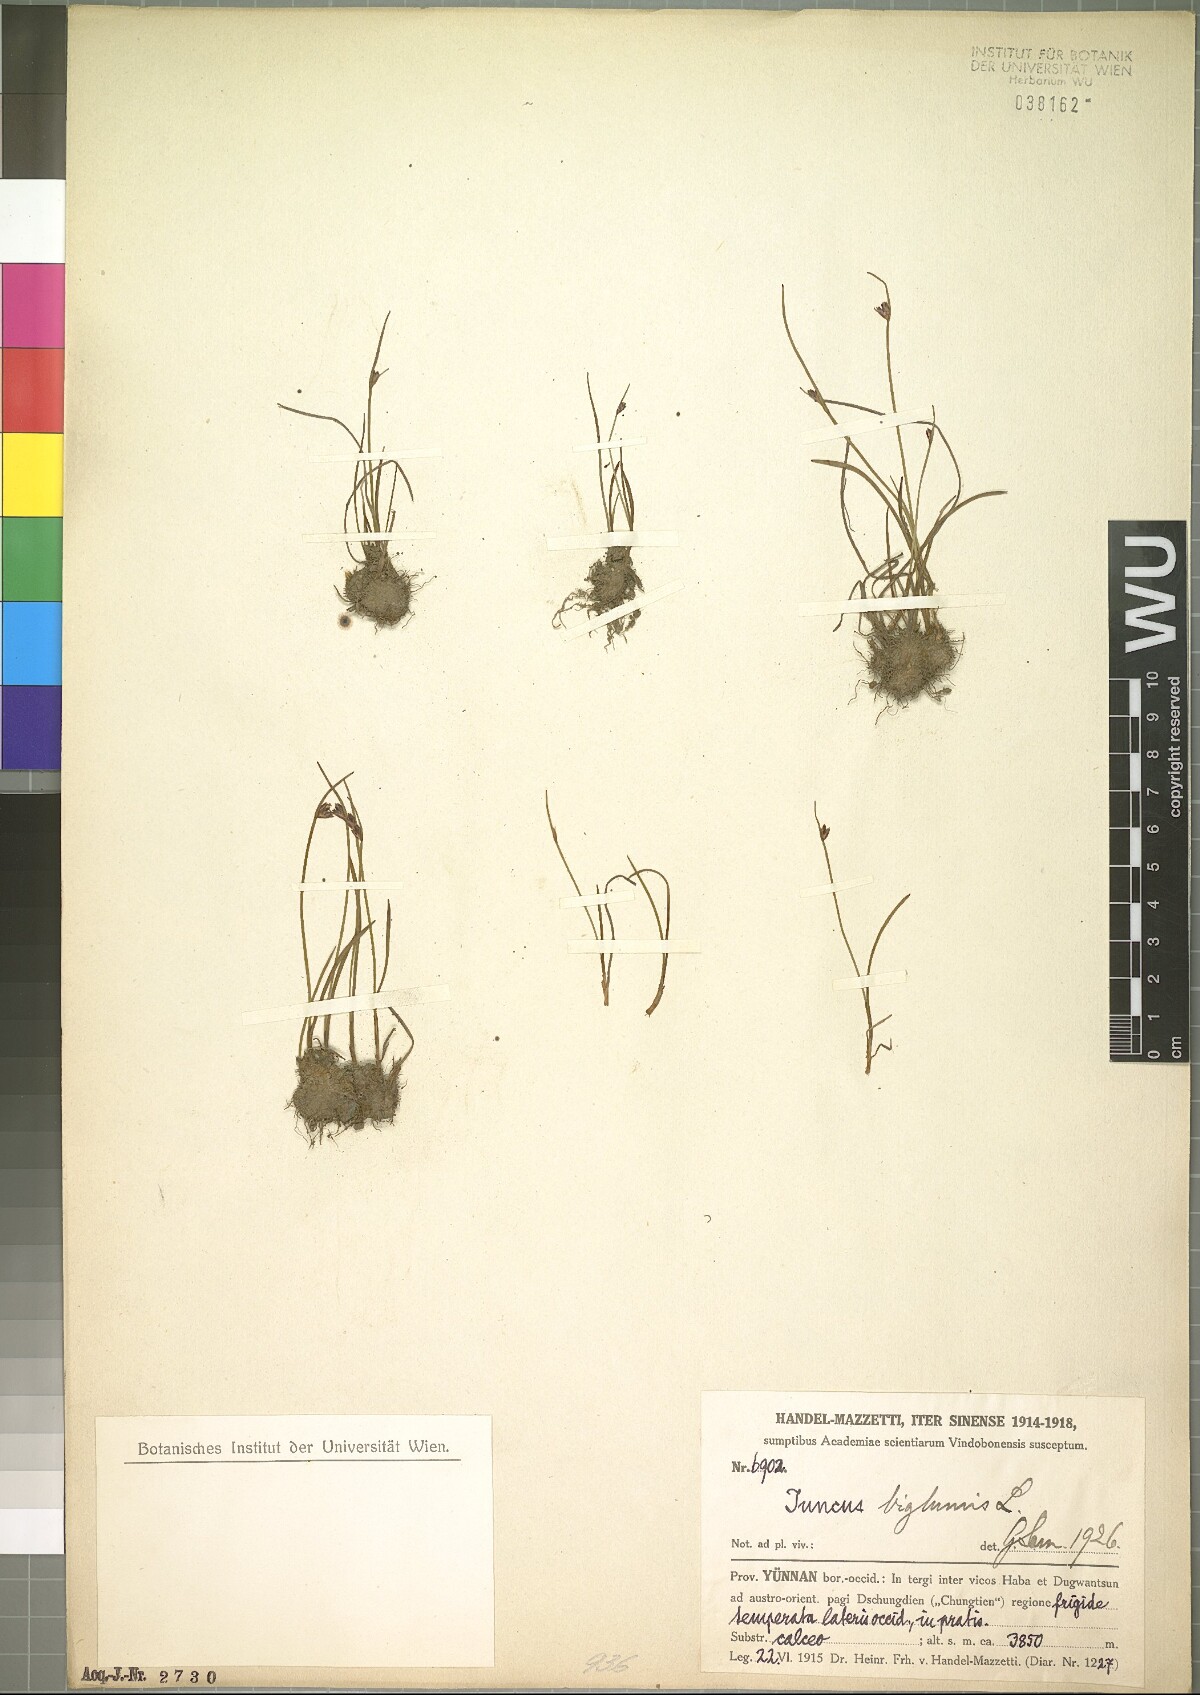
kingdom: Plantae
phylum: Tracheophyta
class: Liliopsida
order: Poales
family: Juncaceae
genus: Juncus
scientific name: Juncus biglumis
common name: Two-flowered rush
